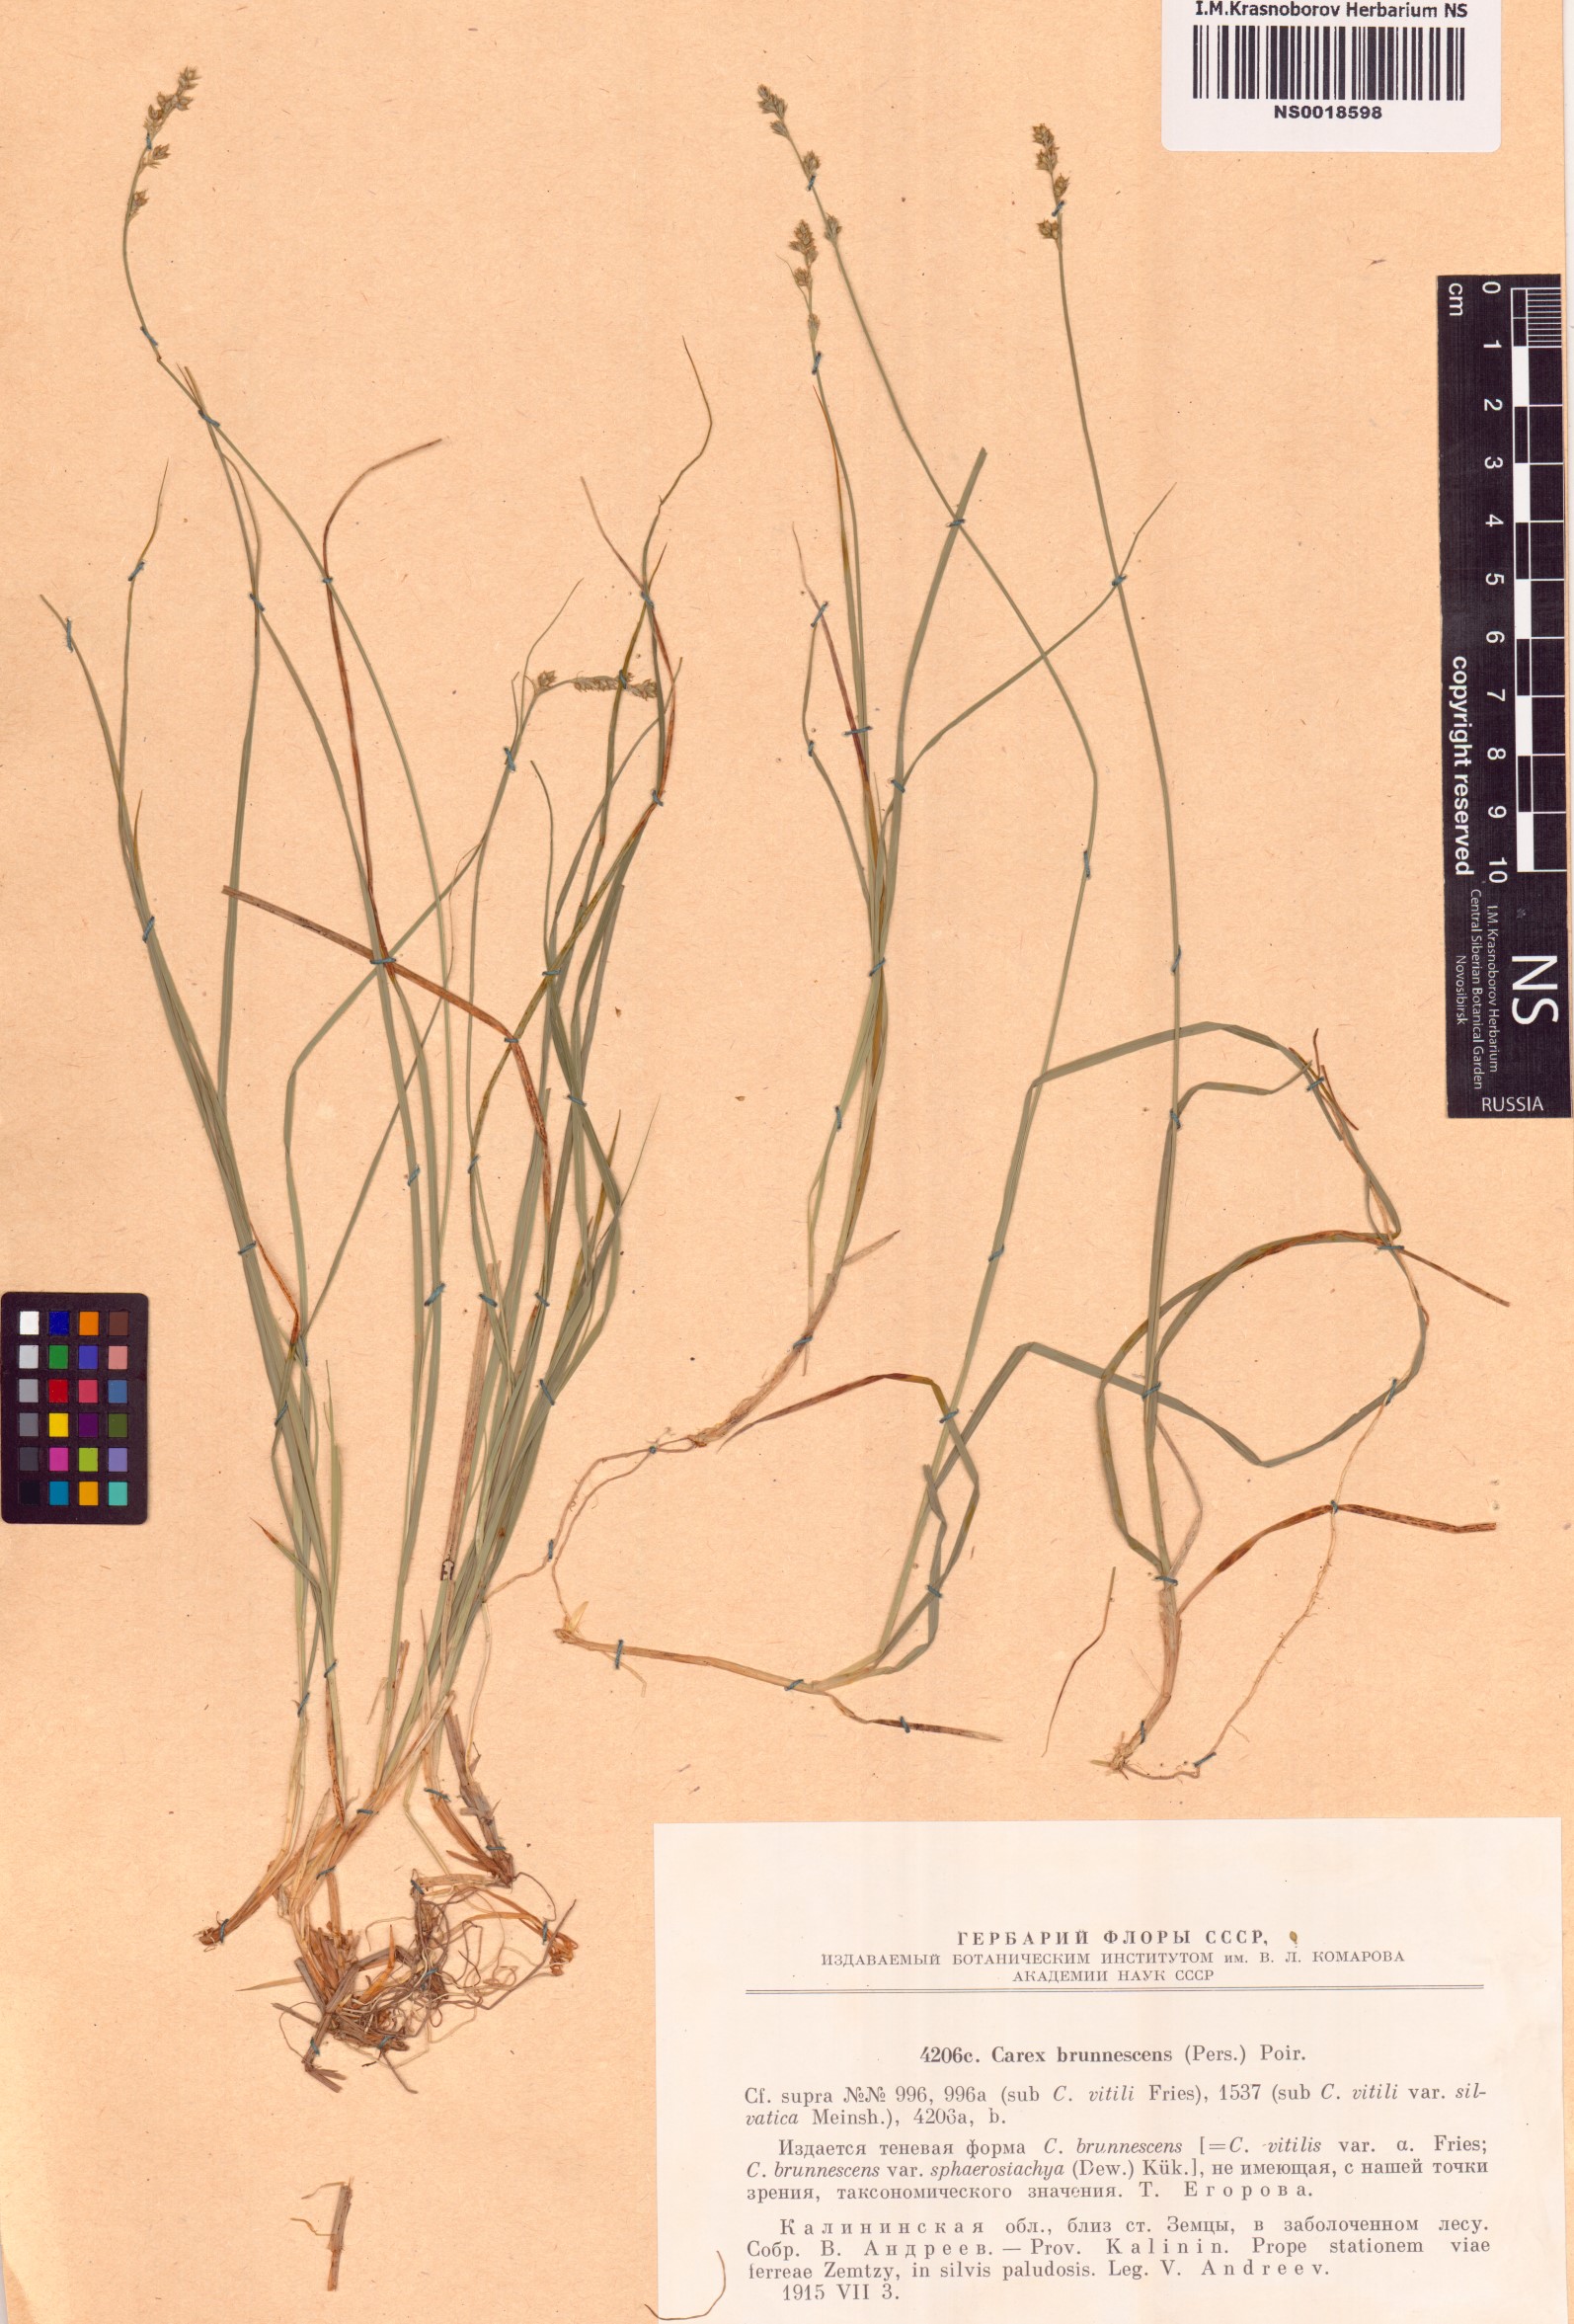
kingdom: Plantae
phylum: Tracheophyta
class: Liliopsida
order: Poales
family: Cyperaceae
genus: Carex
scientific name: Carex brunnescens
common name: Brown sedge
